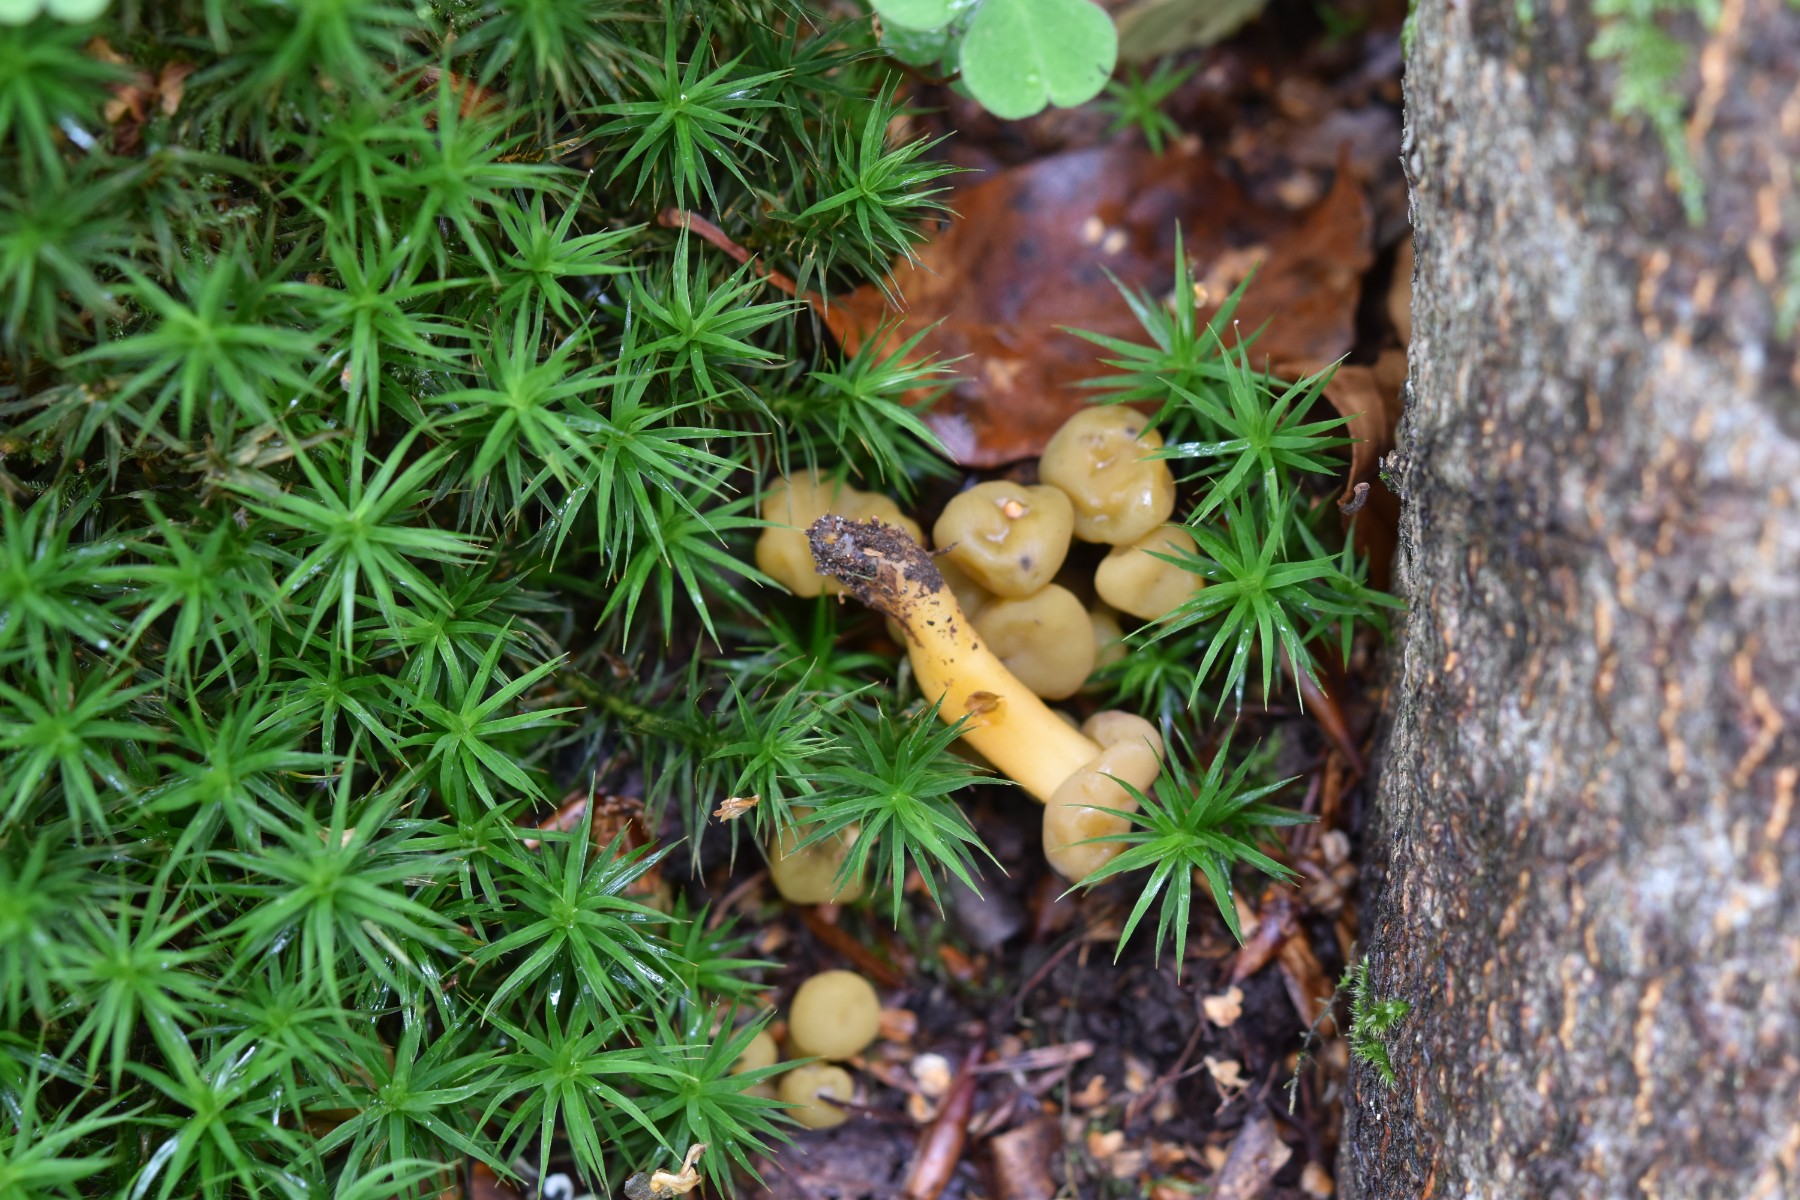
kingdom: Fungi
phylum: Ascomycota
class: Leotiomycetes
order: Leotiales
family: Leotiaceae
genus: Leotia
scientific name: Leotia lubrica
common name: ravsvamp
